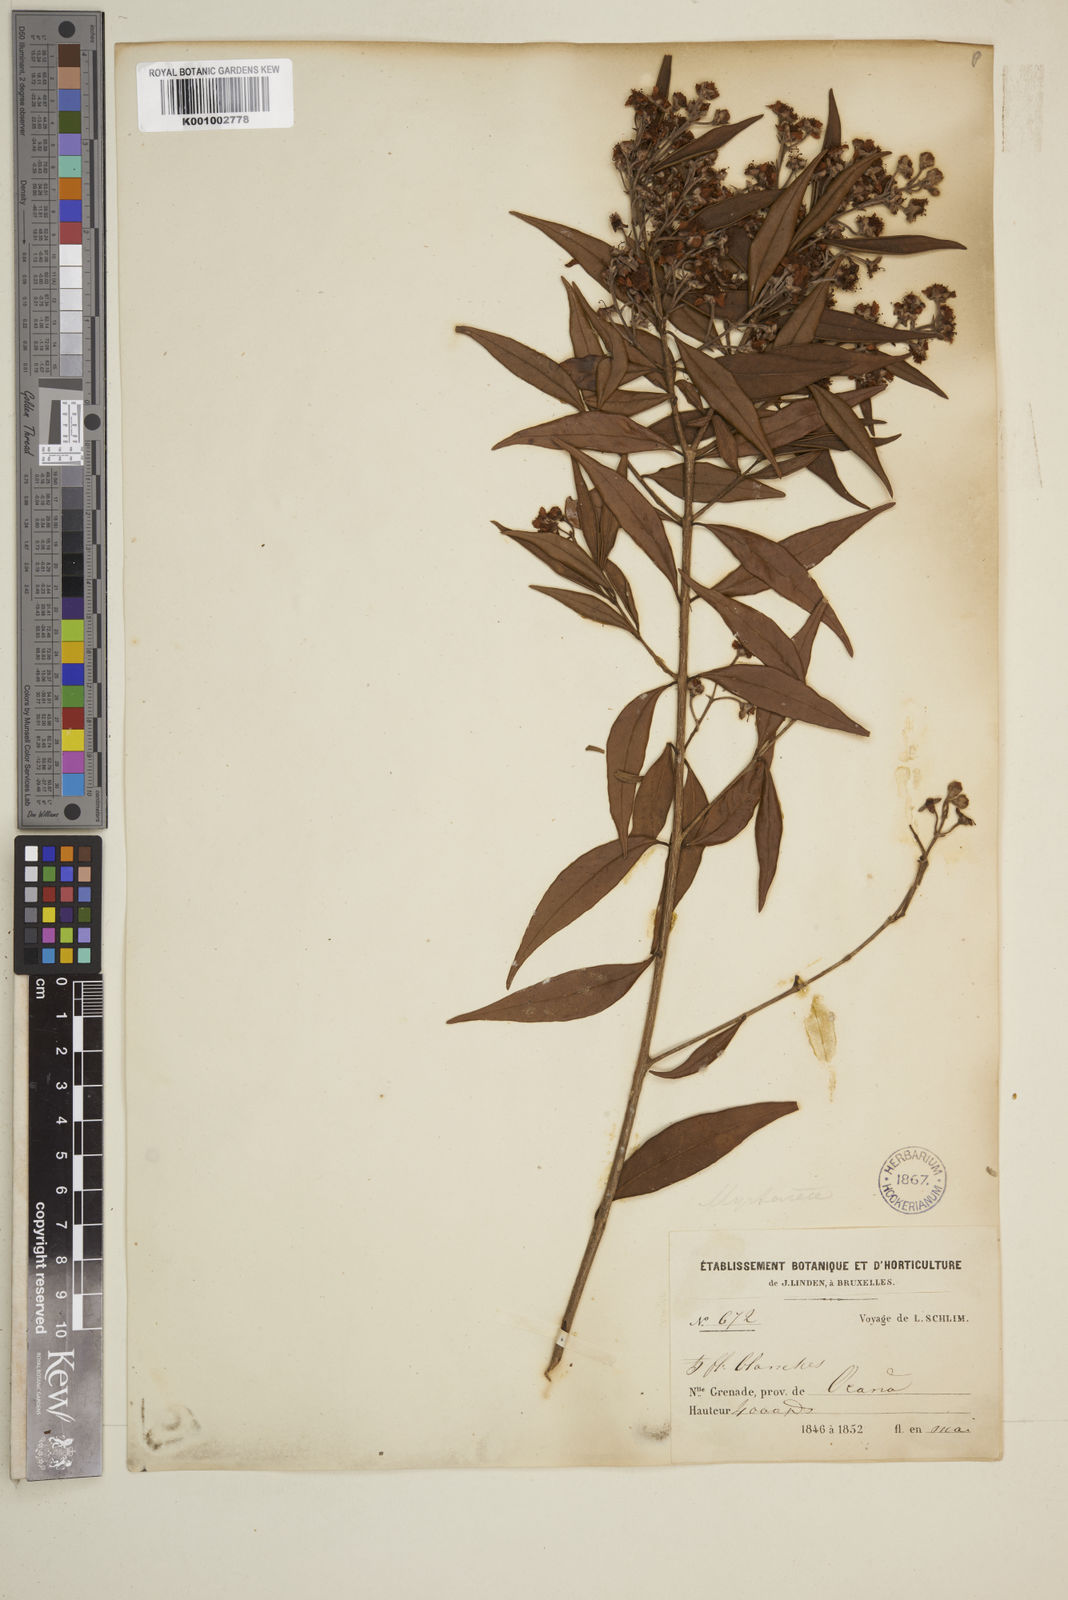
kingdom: Plantae
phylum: Tracheophyta
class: Magnoliopsida
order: Myrtales
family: Myrtaceae
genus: Syzygium
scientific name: Syzygium urophyllum
